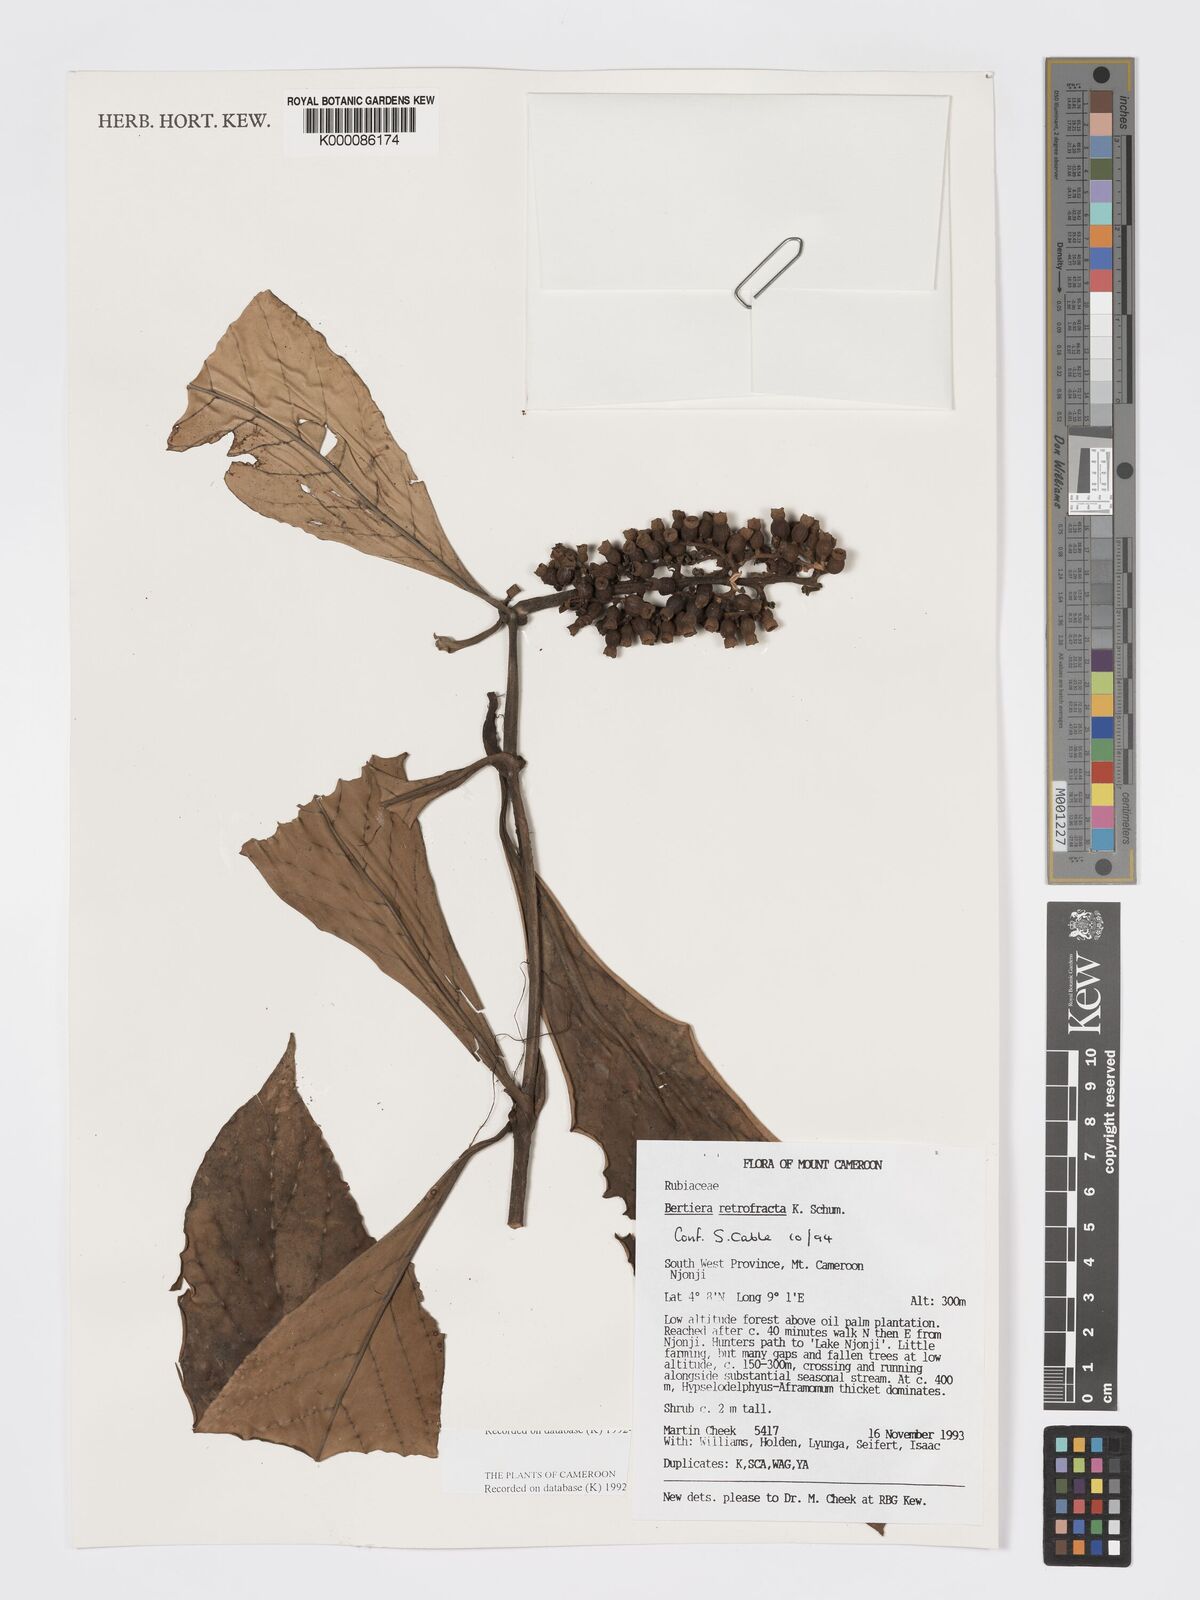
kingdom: Plantae
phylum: Tracheophyta
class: Magnoliopsida
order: Gentianales
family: Rubiaceae
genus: Bertiera
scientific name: Bertiera retrofracta
